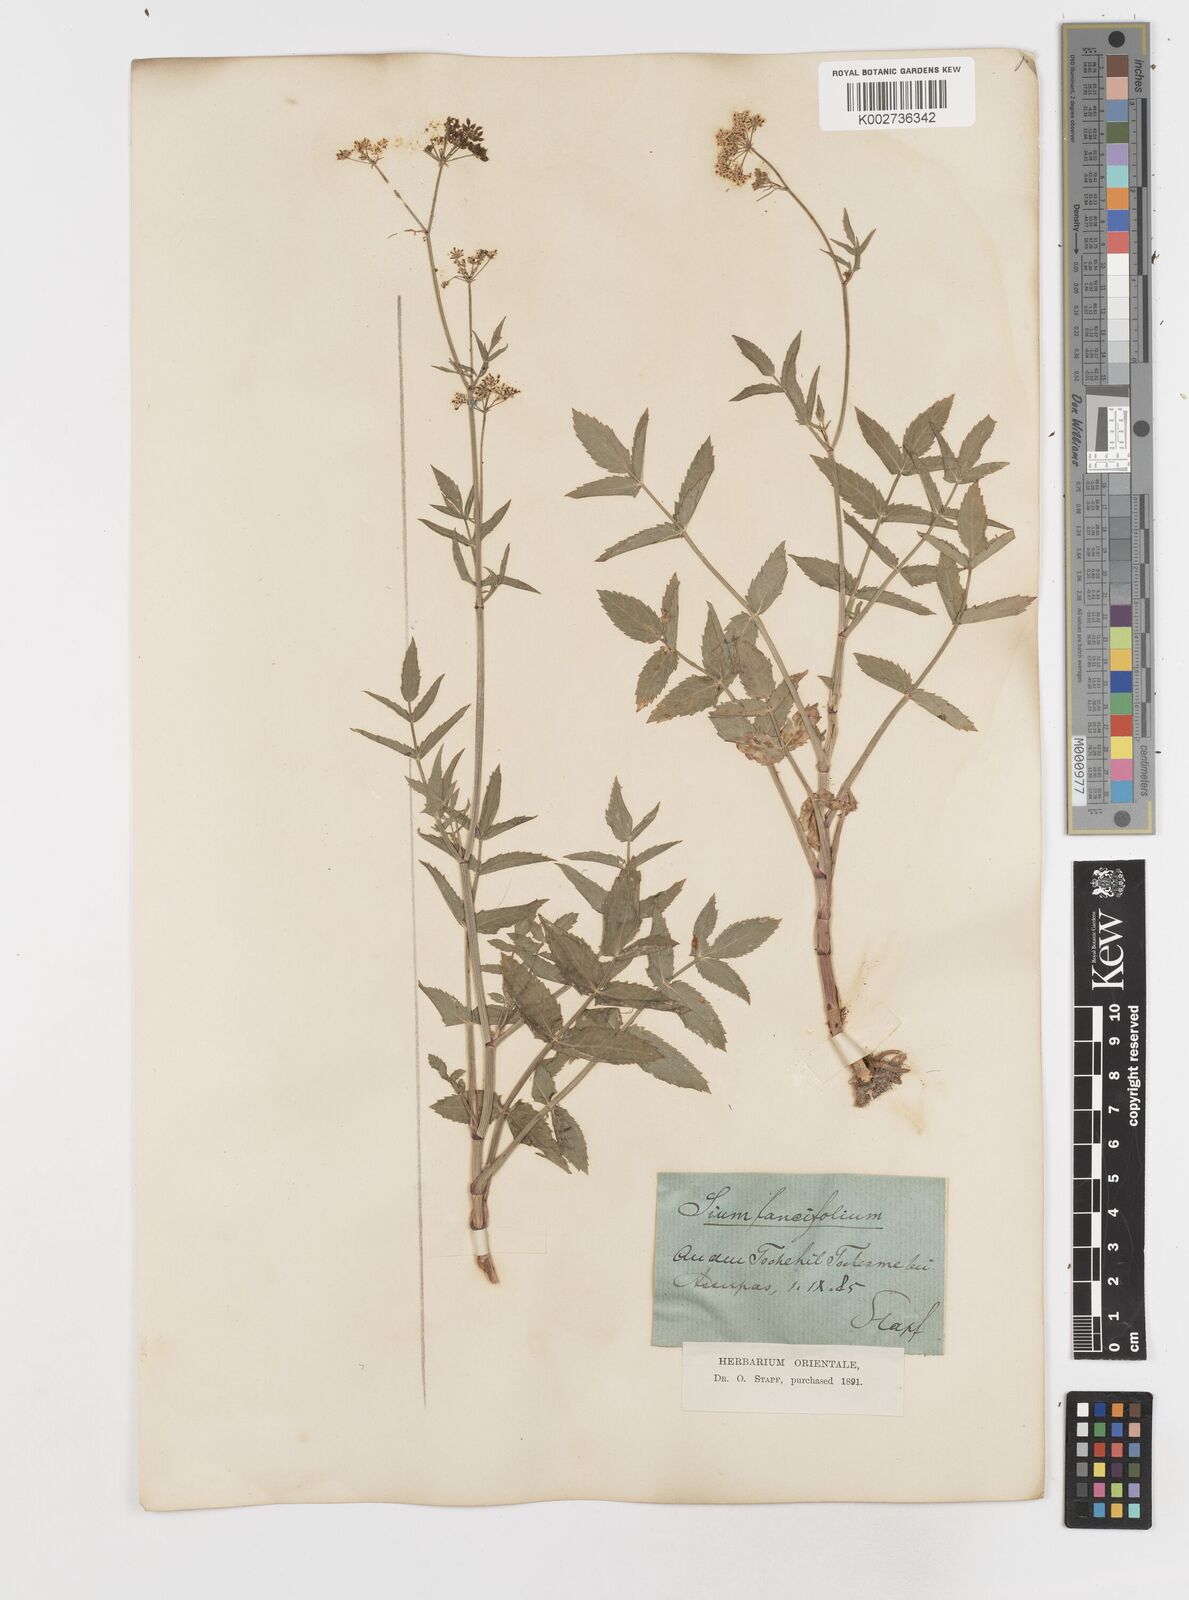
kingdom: Plantae
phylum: Tracheophyta
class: Magnoliopsida
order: Apiales
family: Apiaceae
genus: Sium
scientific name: Sium sisarum
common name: Skirret
